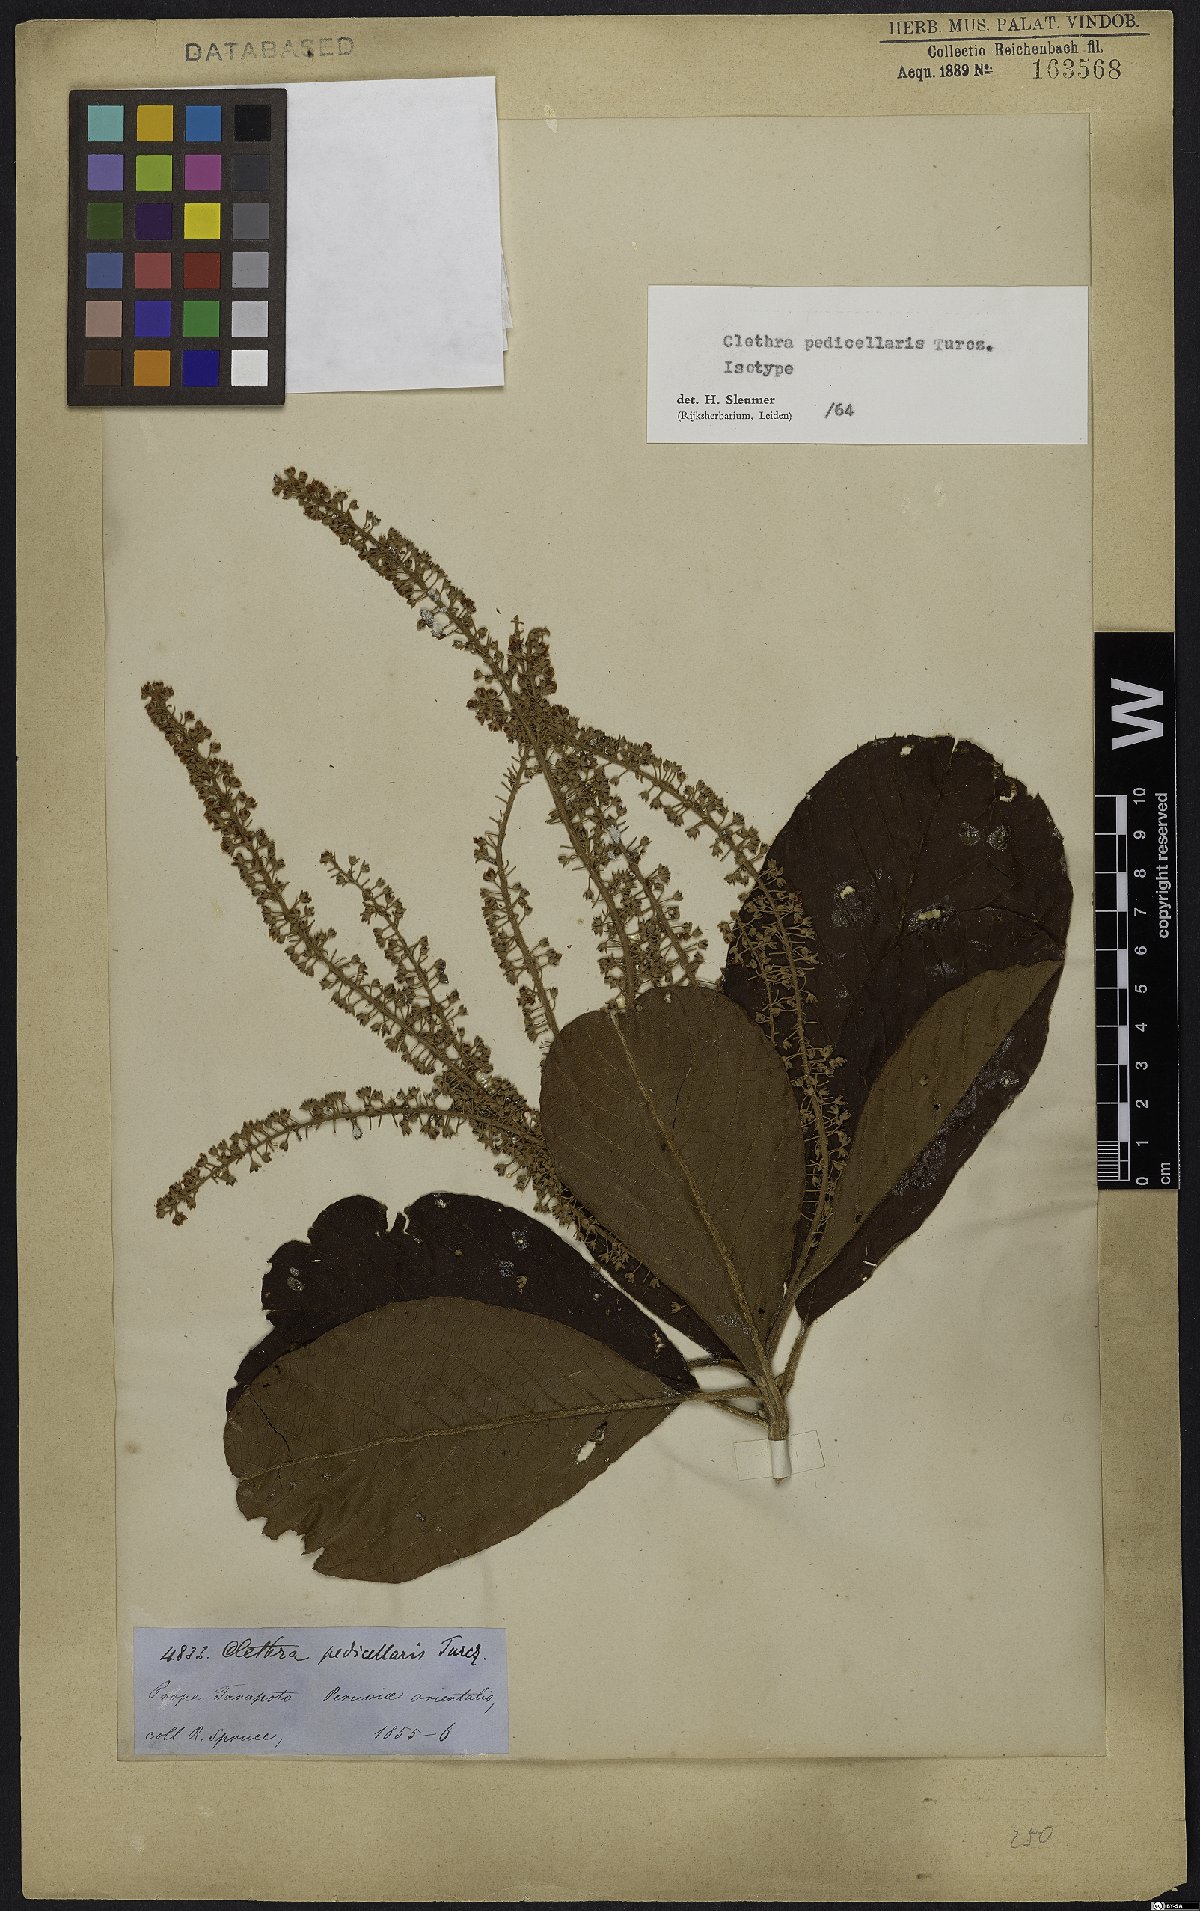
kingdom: Plantae
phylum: Tracheophyta
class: Magnoliopsida
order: Ericales
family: Clethraceae
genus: Clethra
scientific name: Clethra pedicellaris
